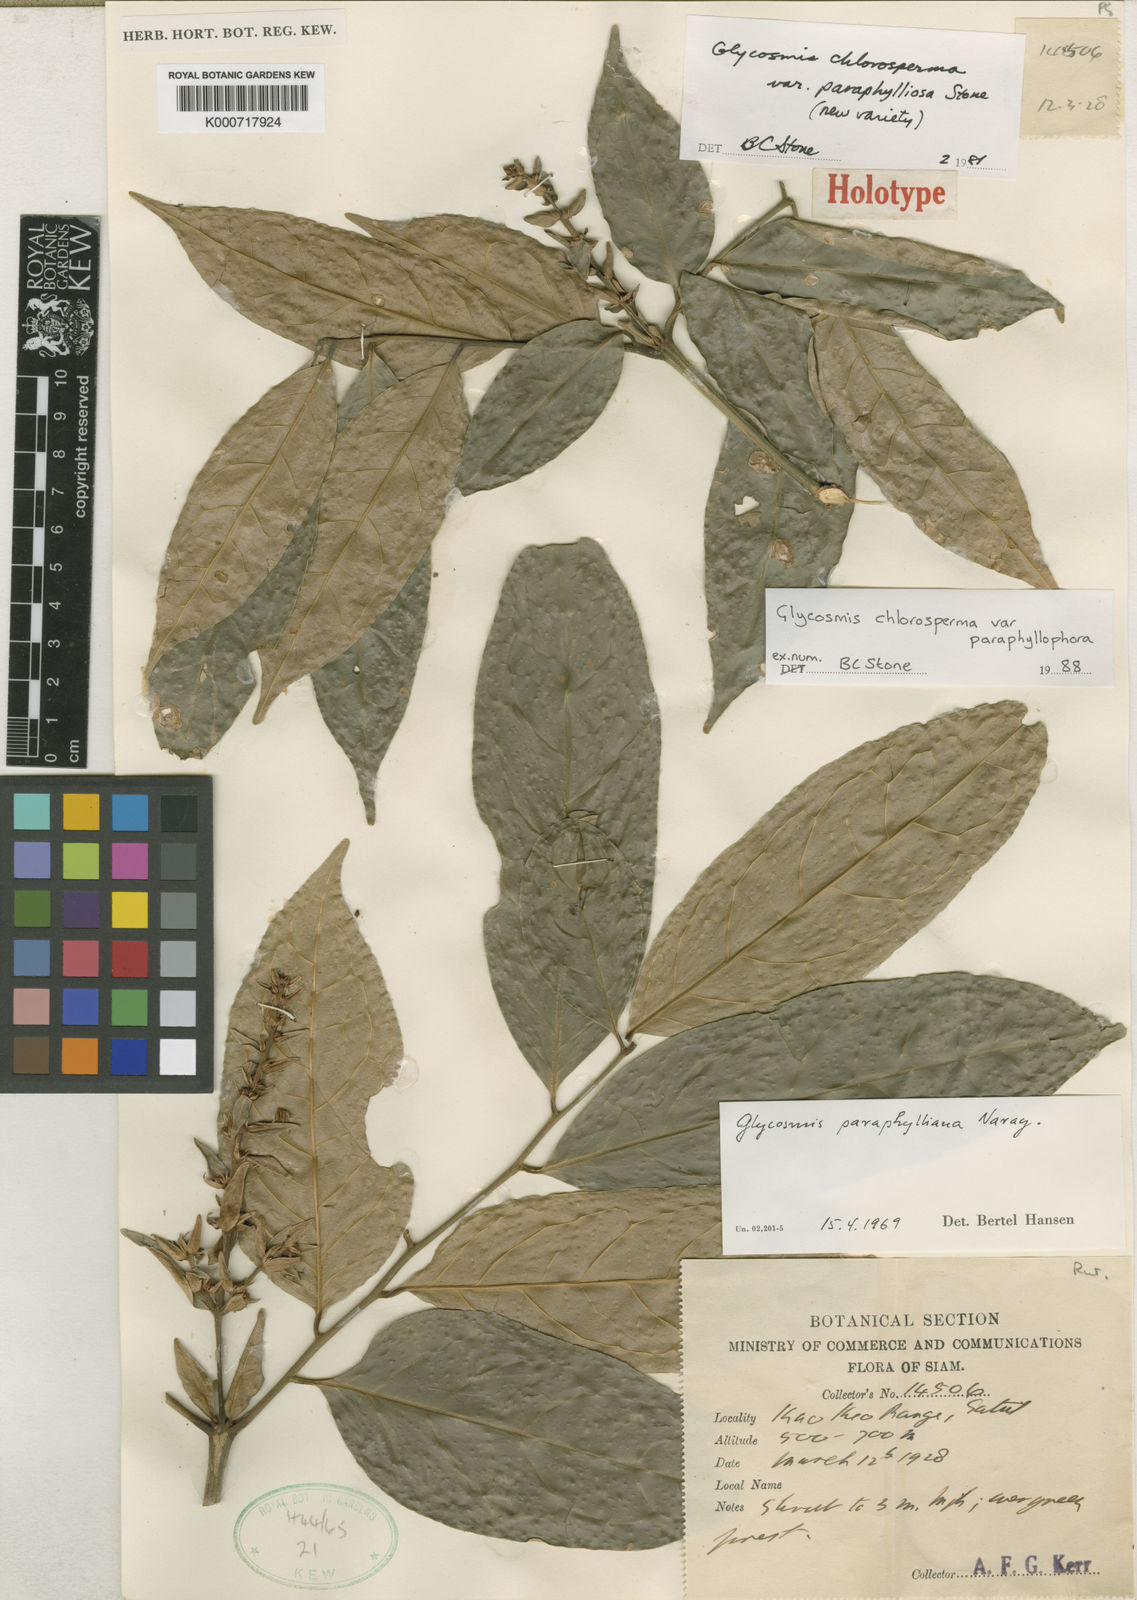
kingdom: Plantae
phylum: Tracheophyta
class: Magnoliopsida
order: Sapindales
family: Rutaceae
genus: Glycosmis
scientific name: Glycosmis chlorosperma
